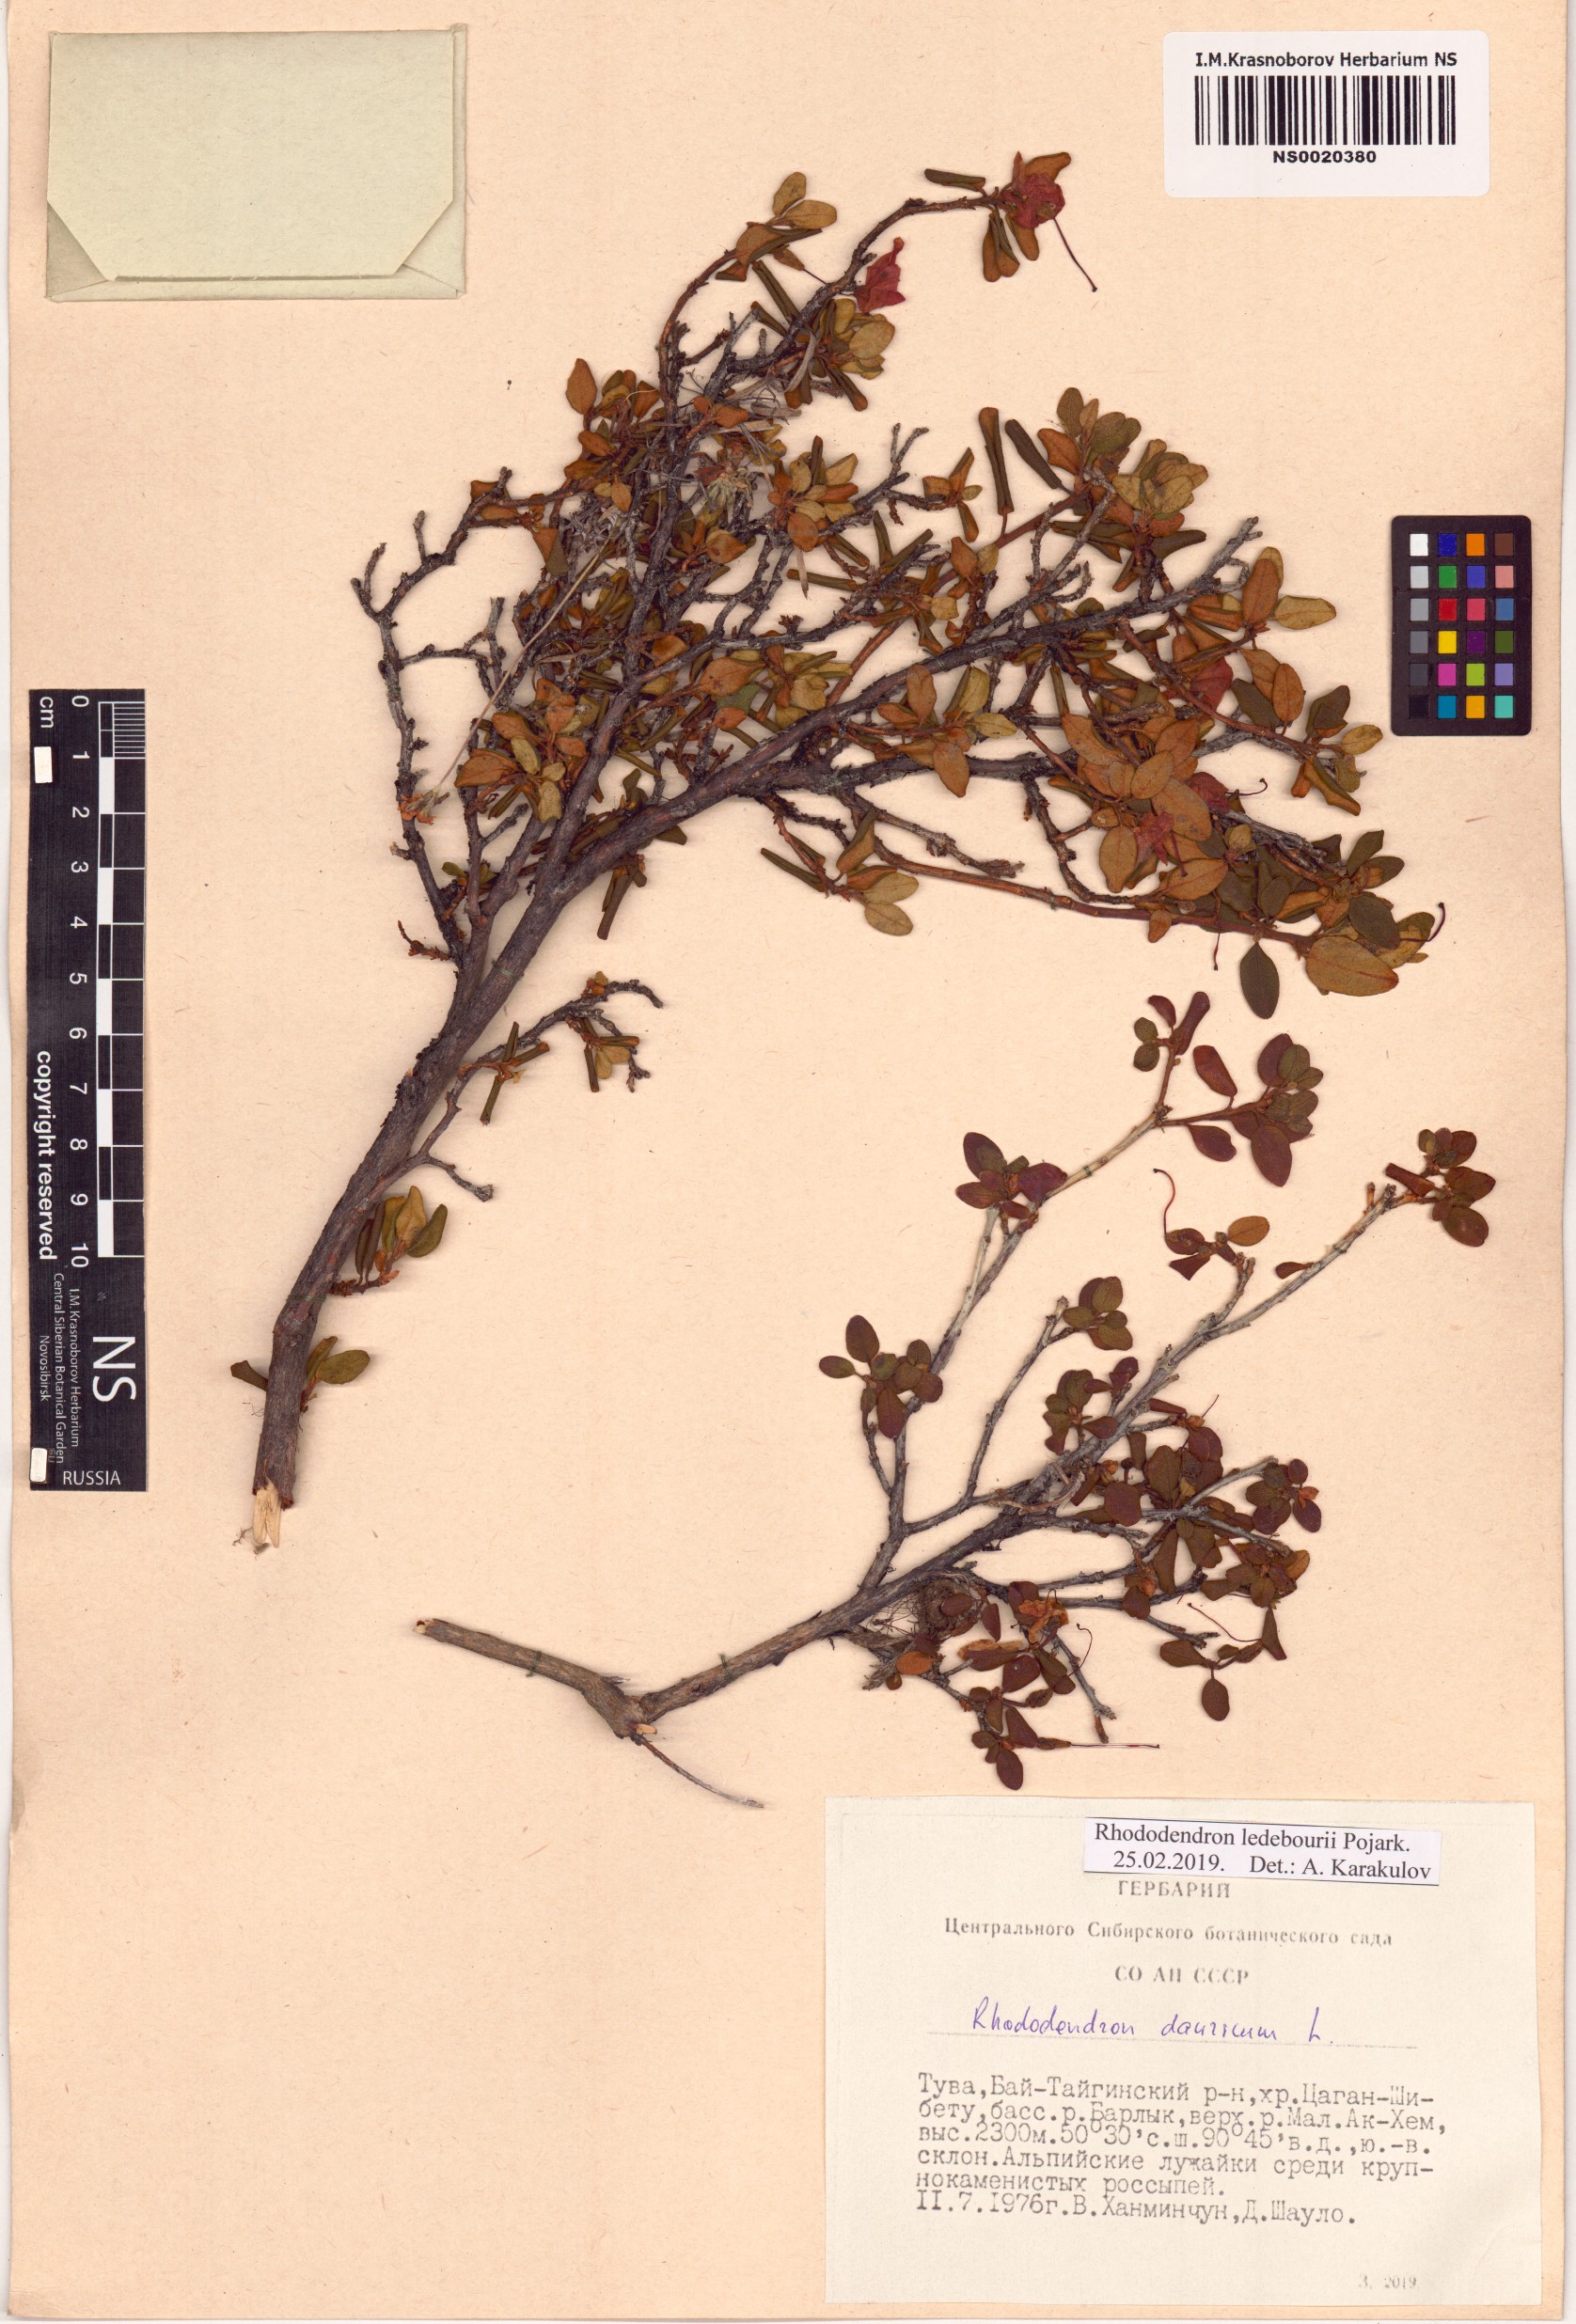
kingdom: Plantae
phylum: Tracheophyta
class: Magnoliopsida
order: Ericales
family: Ericaceae
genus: Rhododendron
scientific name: Rhododendron dauricum
